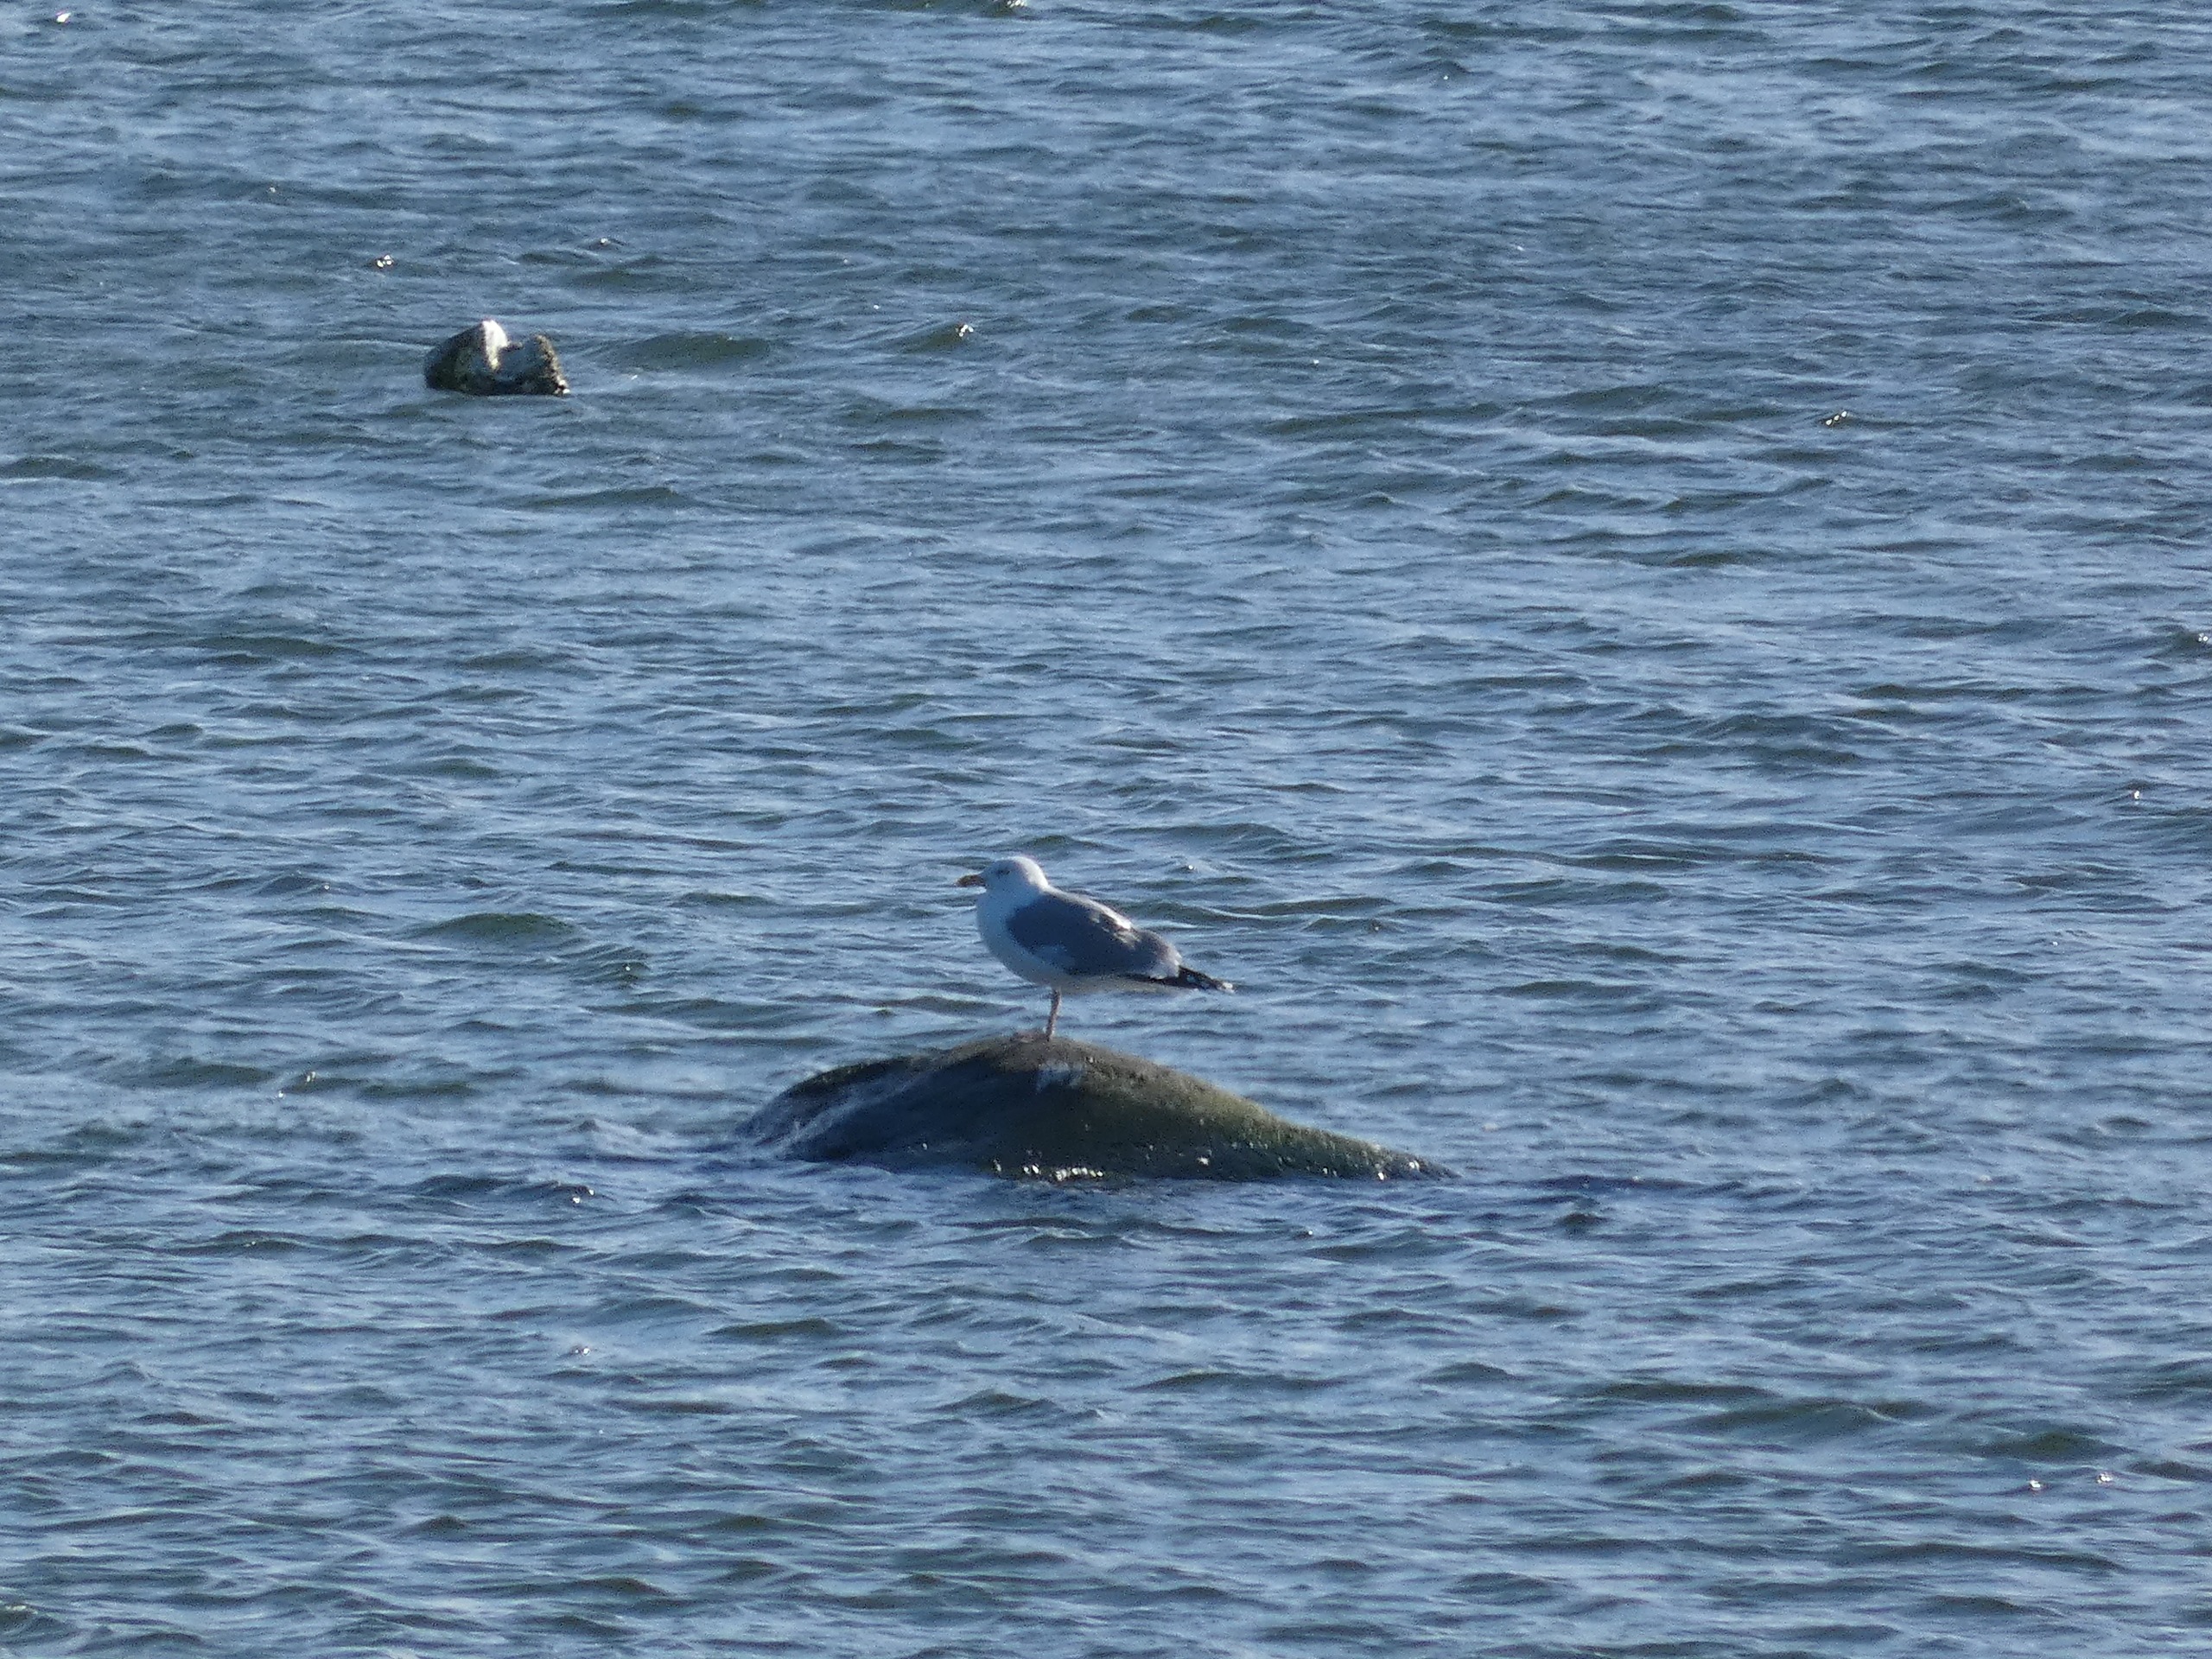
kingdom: Animalia
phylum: Chordata
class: Aves
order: Charadriiformes
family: Laridae
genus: Larus
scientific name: Larus argentatus
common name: Sølvmåge
